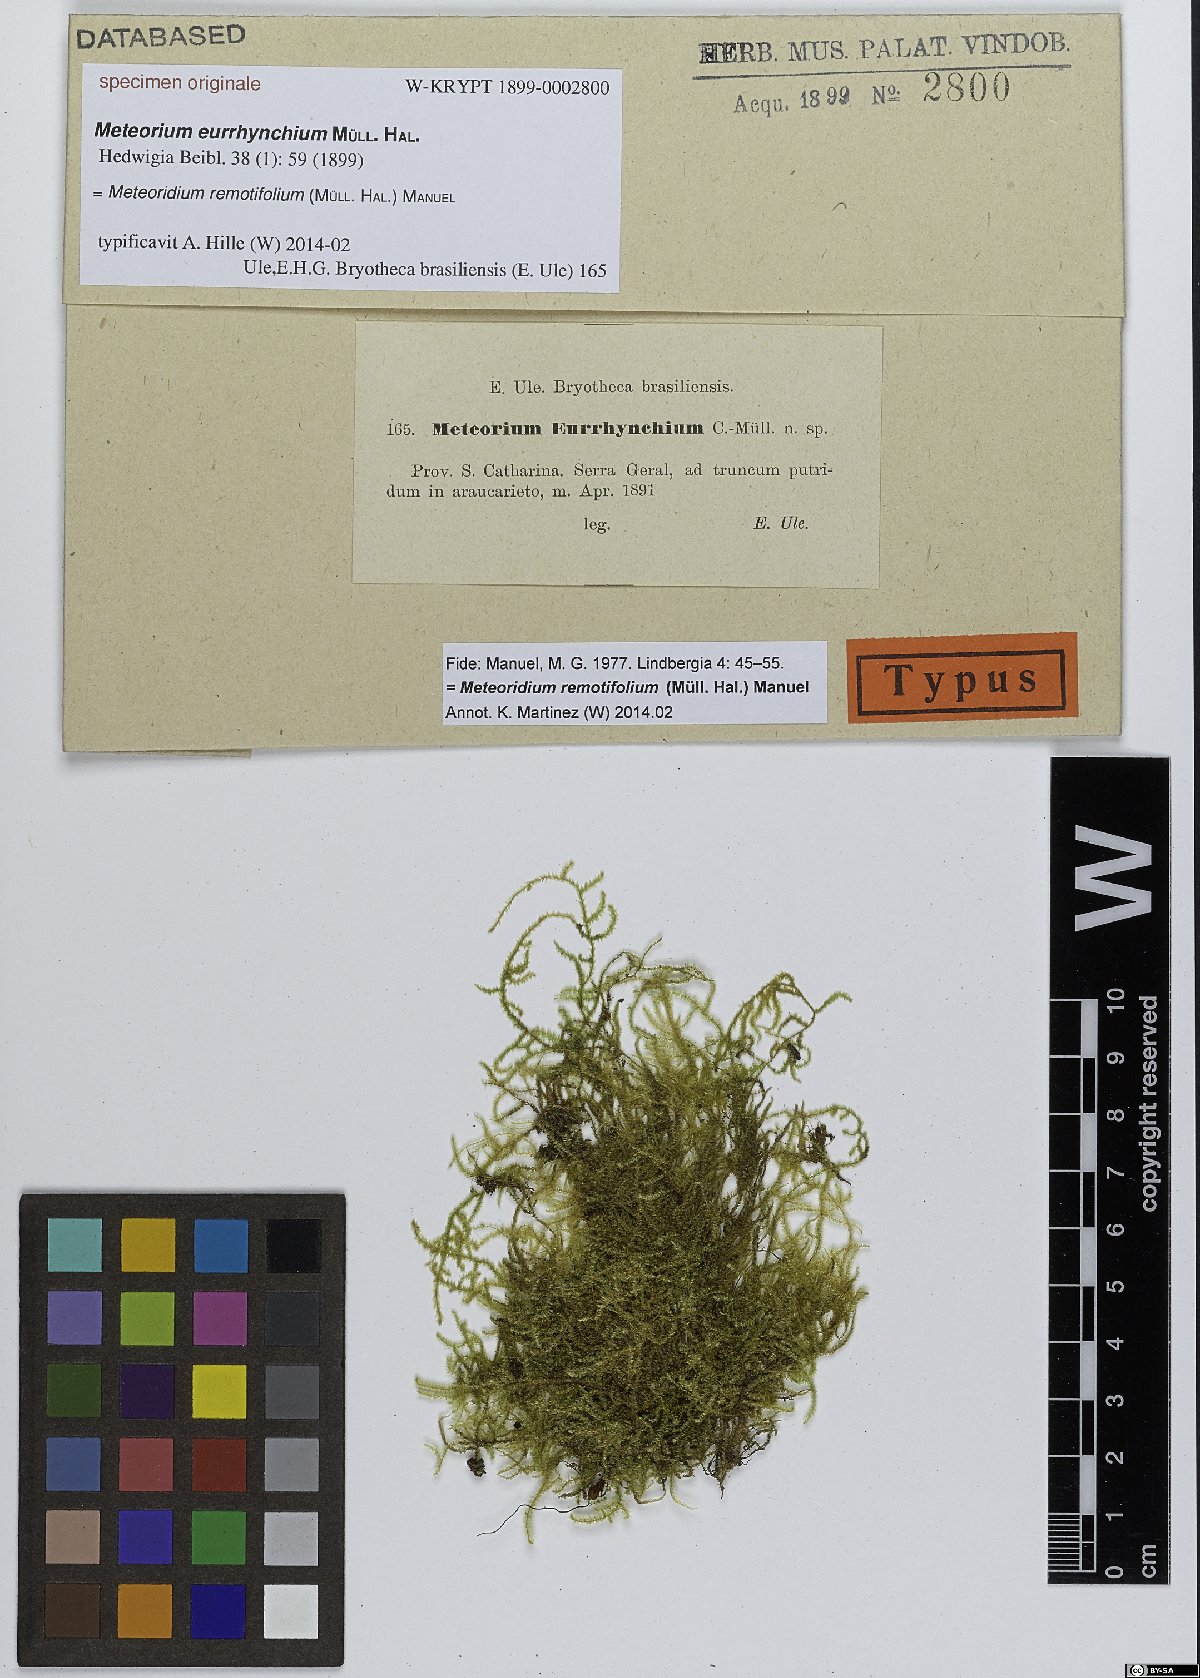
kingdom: Plantae
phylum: Bryophyta
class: Bryopsida
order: Hypnales
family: Meteoriaceae
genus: Meteorium
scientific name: Meteorium
